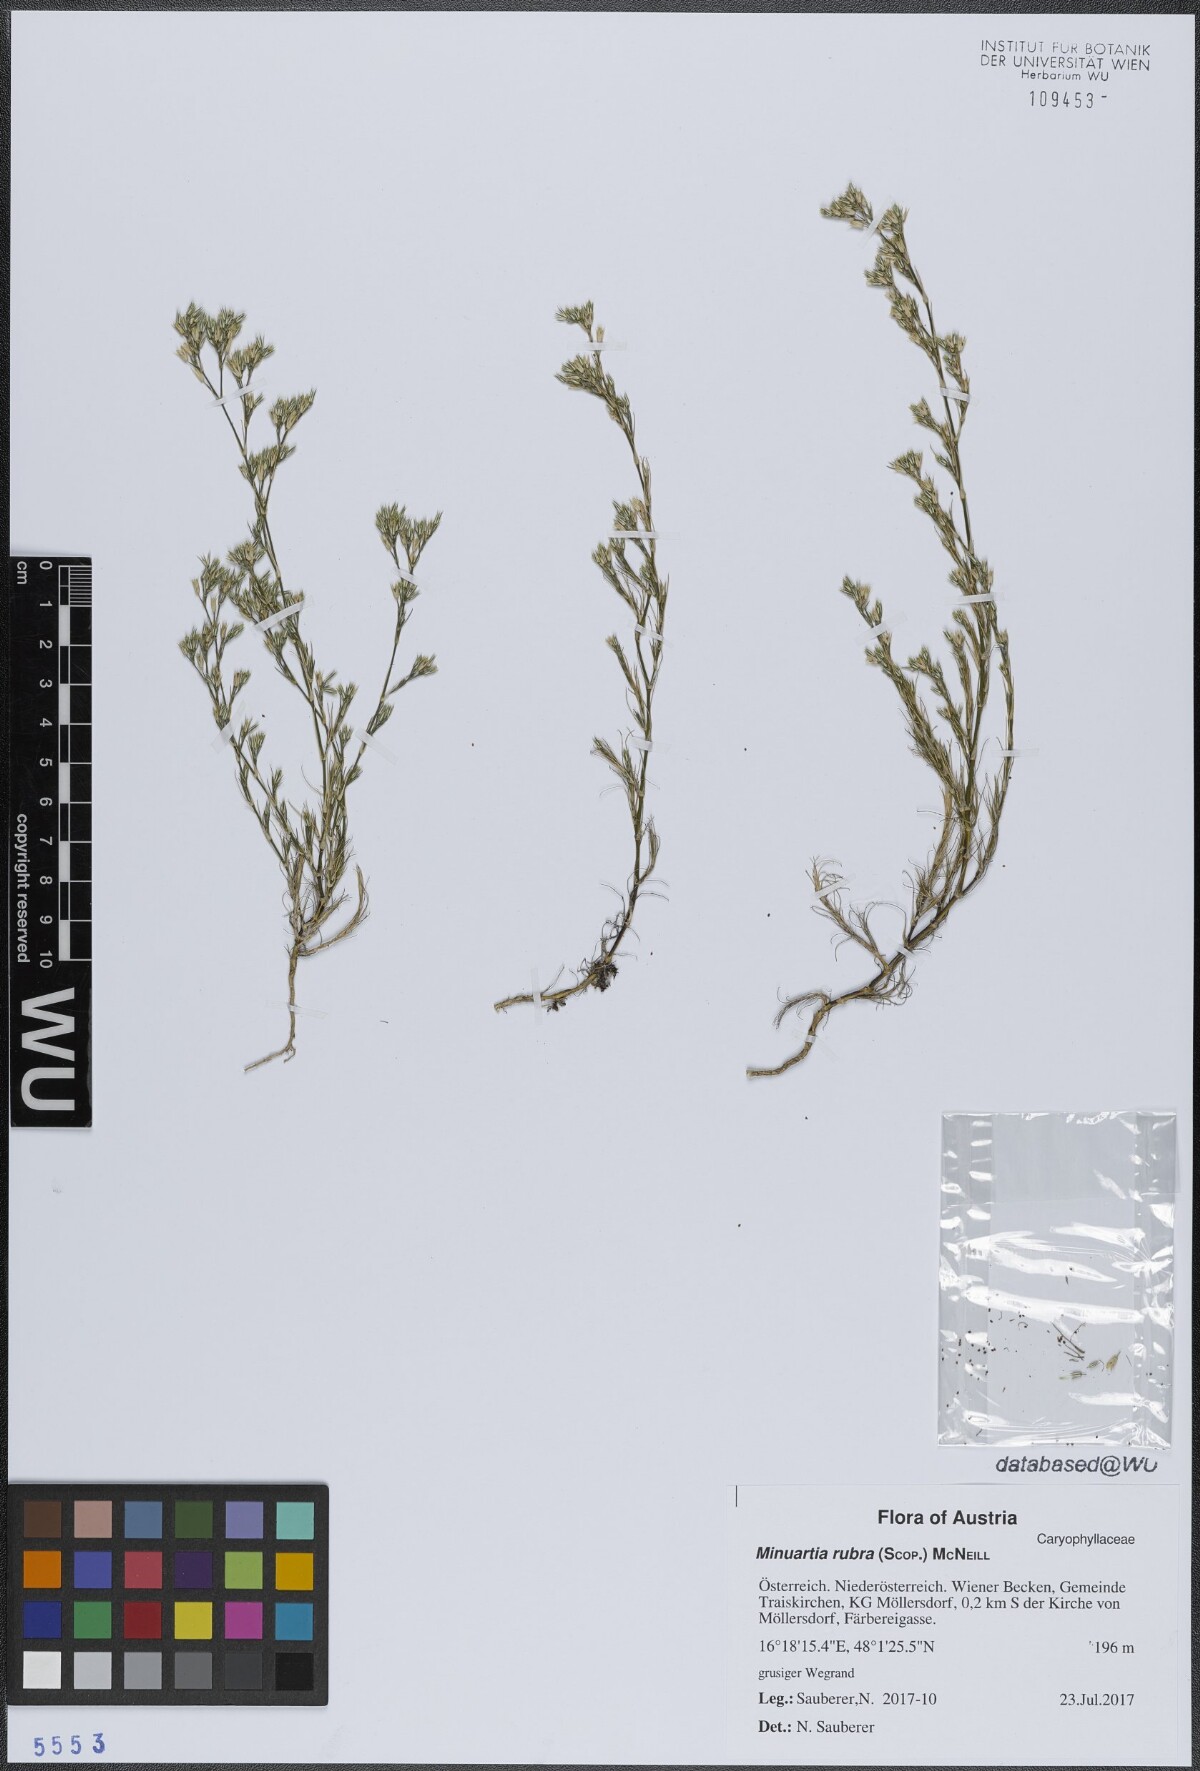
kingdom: Plantae
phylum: Tracheophyta
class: Magnoliopsida
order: Caryophyllales
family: Caryophyllaceae
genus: Minuartia
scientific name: Minuartia mucronata
